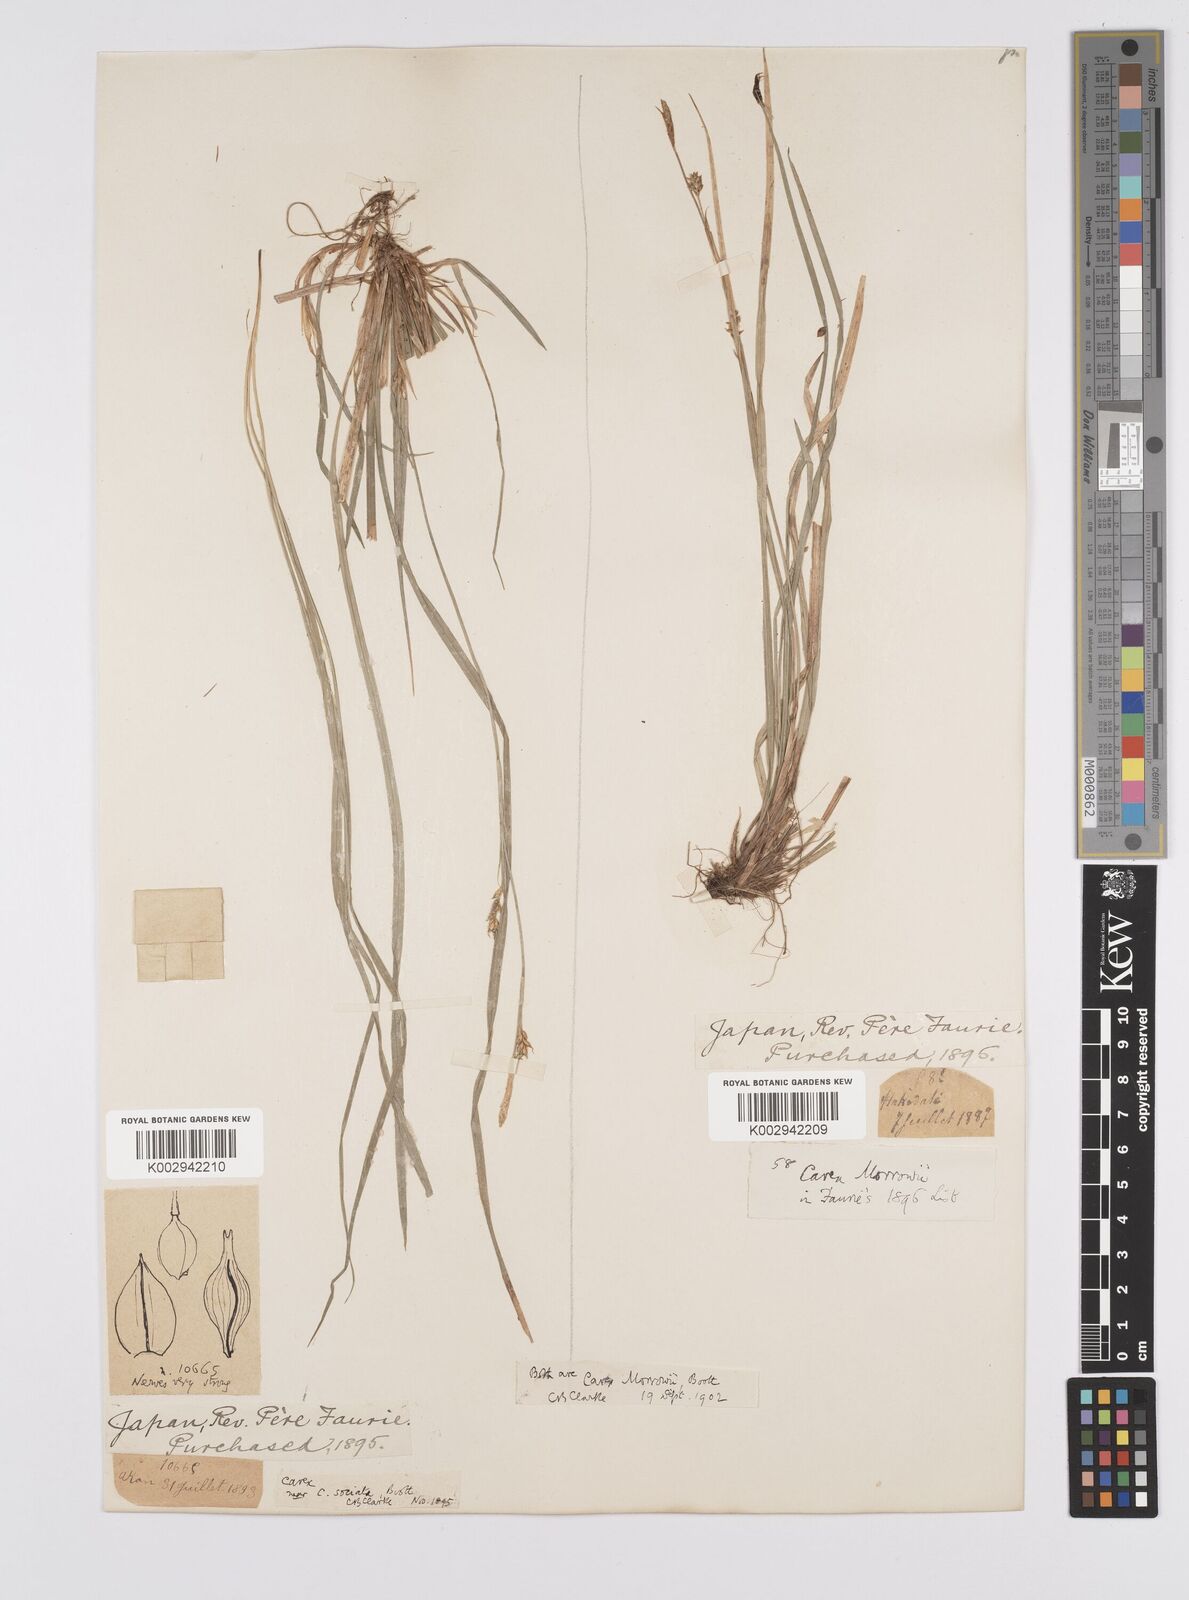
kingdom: Plantae
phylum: Tracheophyta
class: Liliopsida
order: Poales
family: Cyperaceae
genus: Carex
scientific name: Carex morrowii
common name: Japanese sedge
